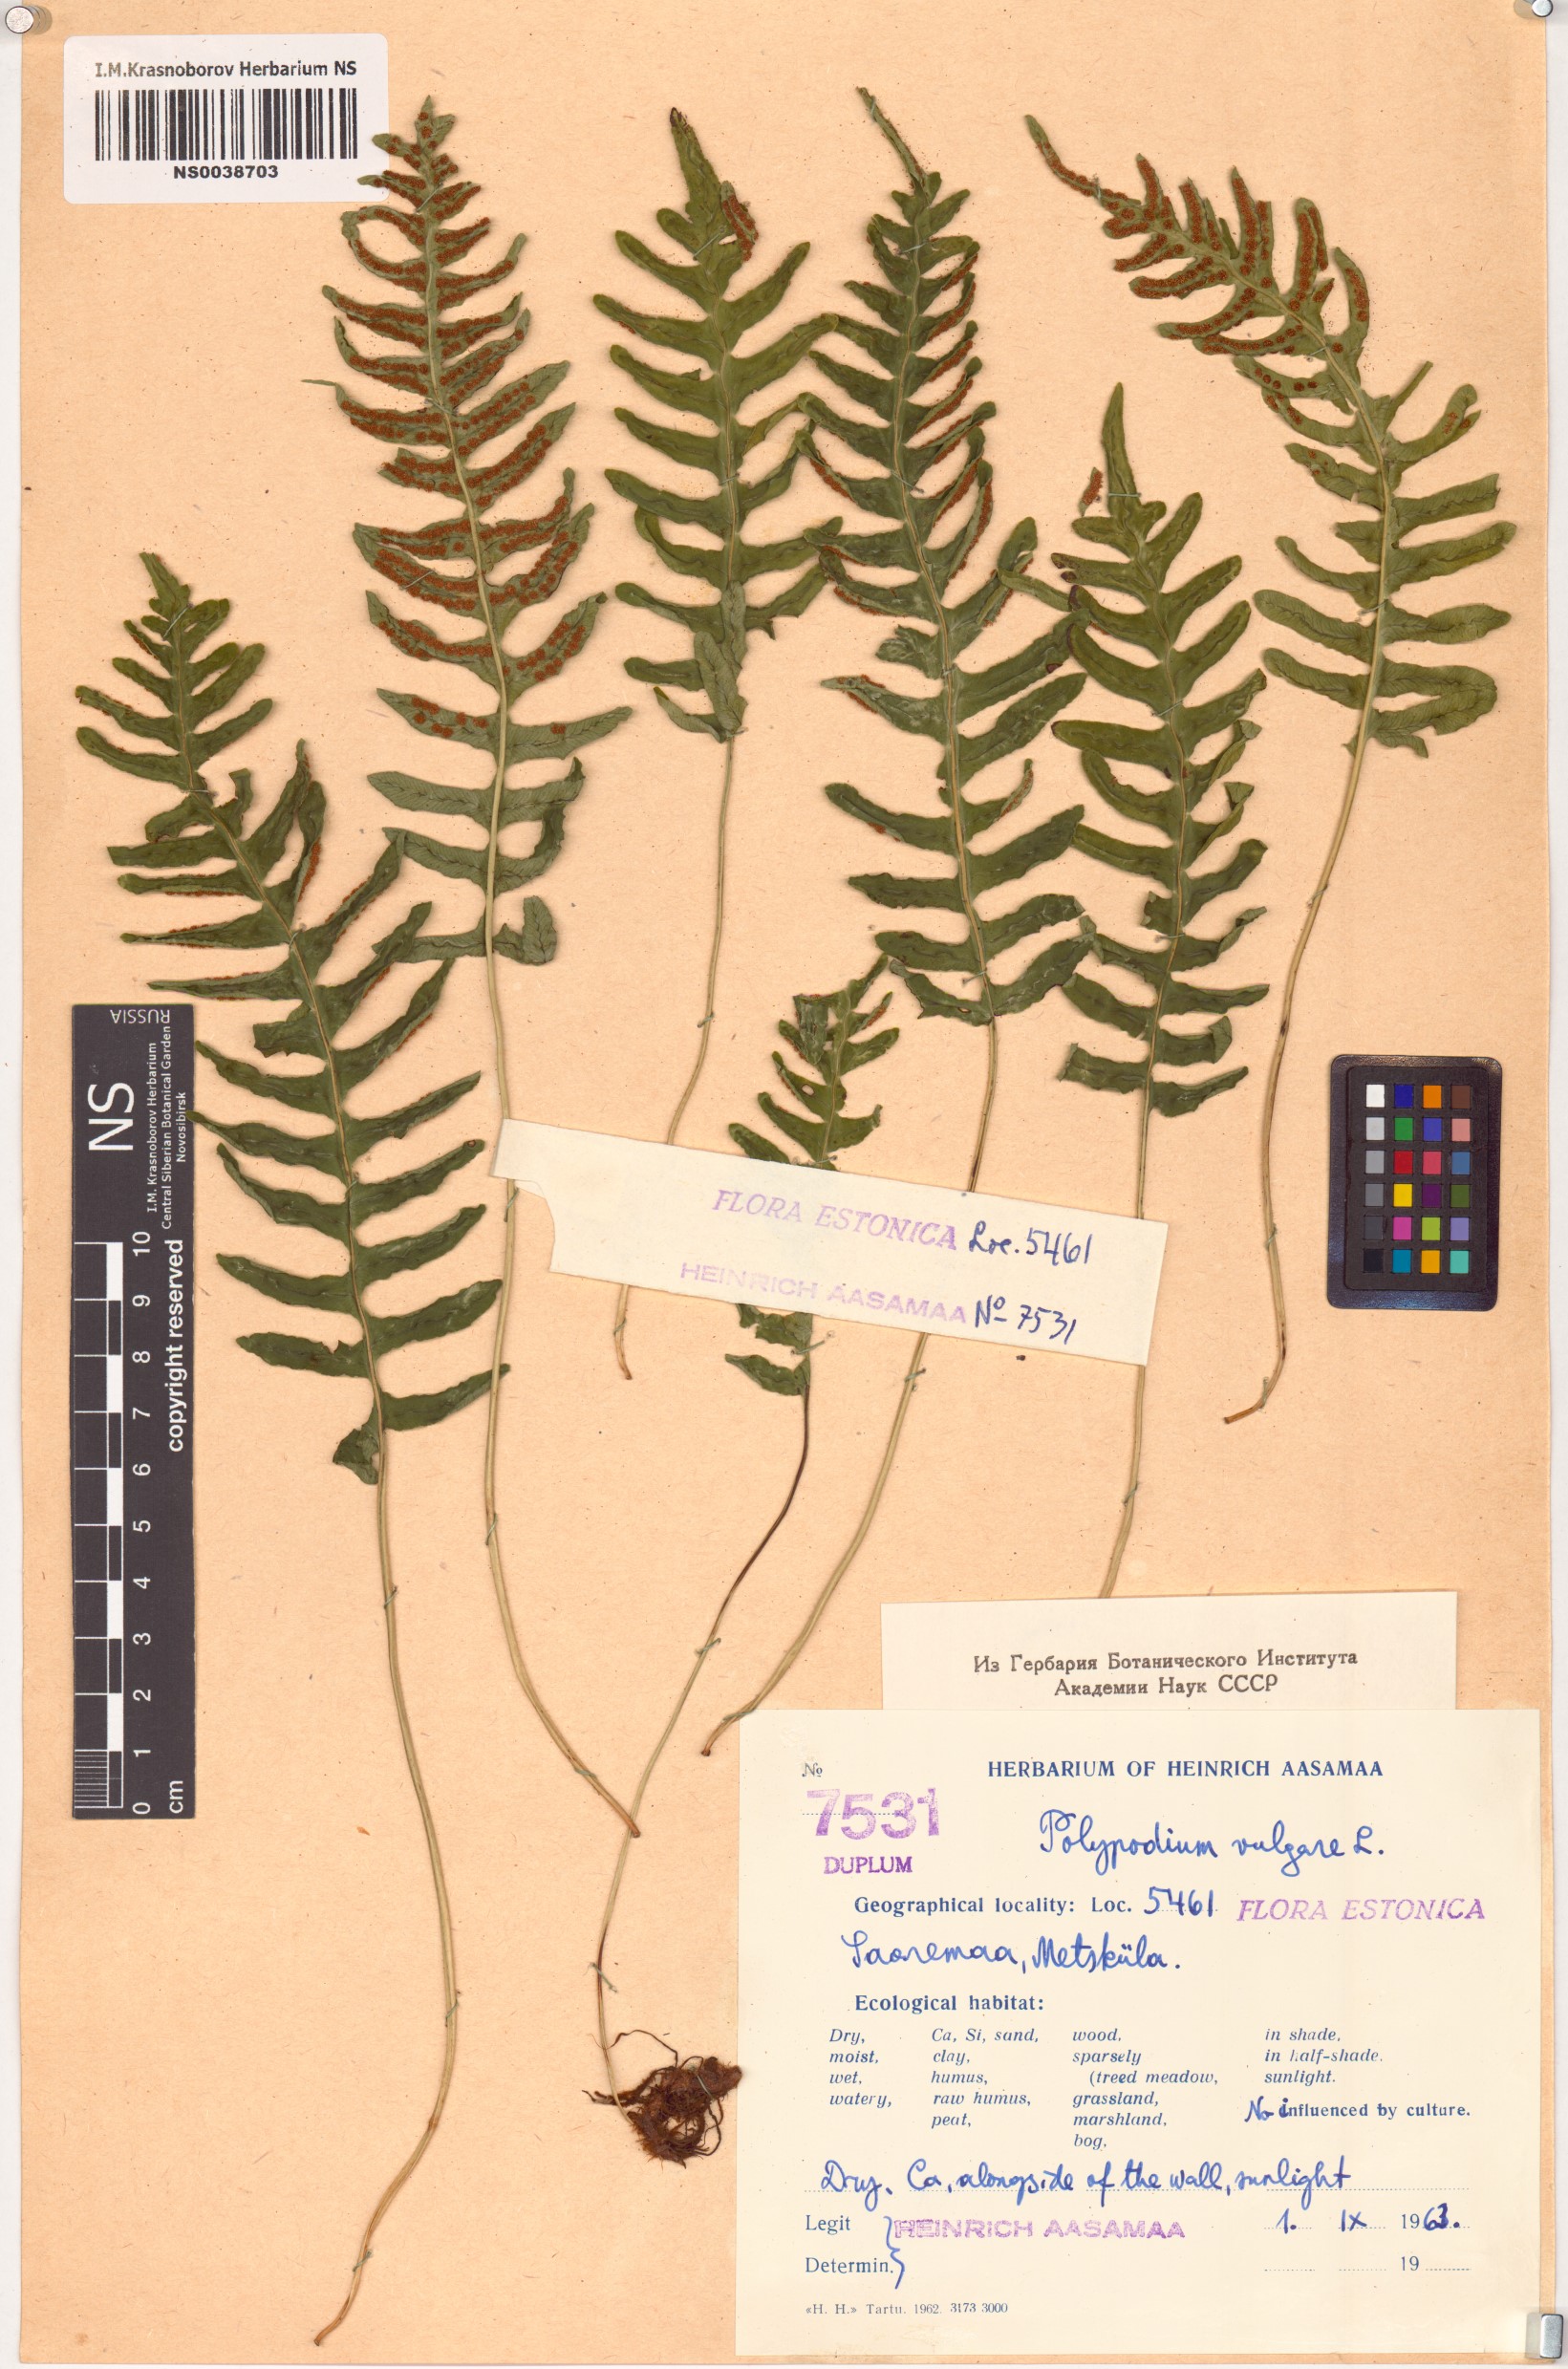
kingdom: Plantae
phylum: Tracheophyta
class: Polypodiopsida
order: Polypodiales
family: Polypodiaceae
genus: Polypodium
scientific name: Polypodium vulgare
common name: Common polypody
